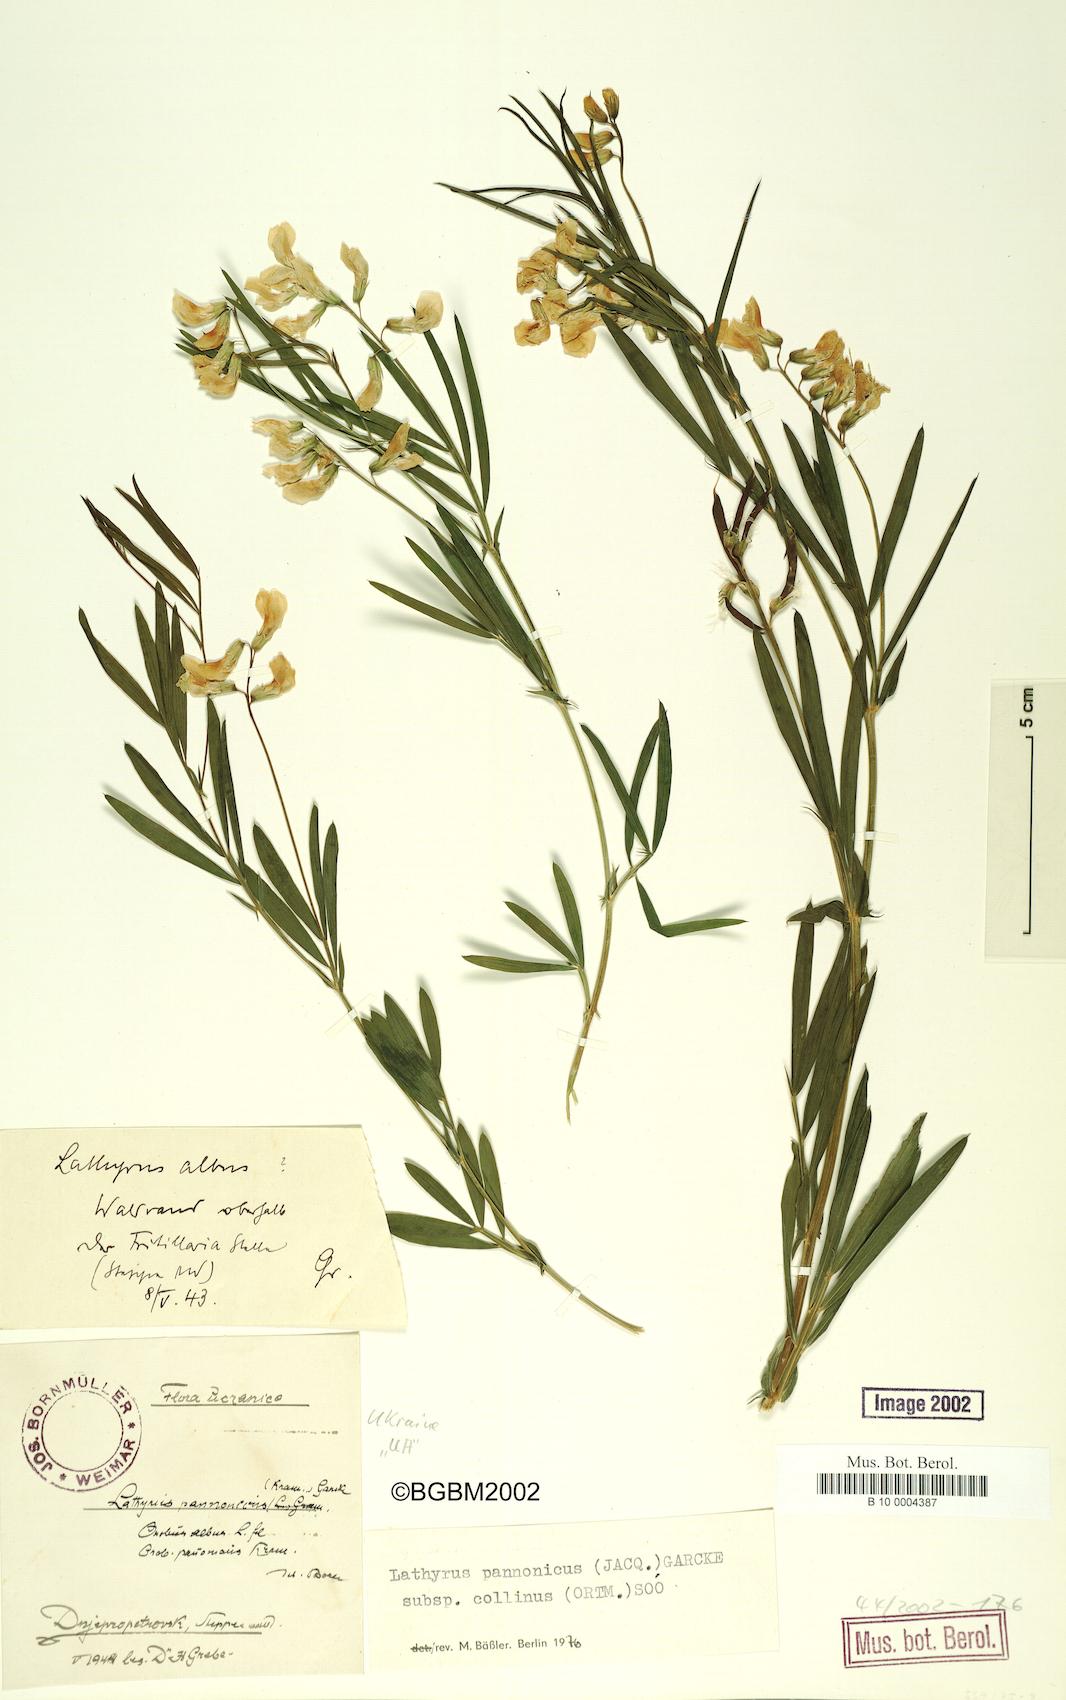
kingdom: Plantae
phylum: Tracheophyta
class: Magnoliopsida
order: Fabales
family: Fabaceae
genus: Lathyrus
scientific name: Lathyrus pannonicus
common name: Pea
